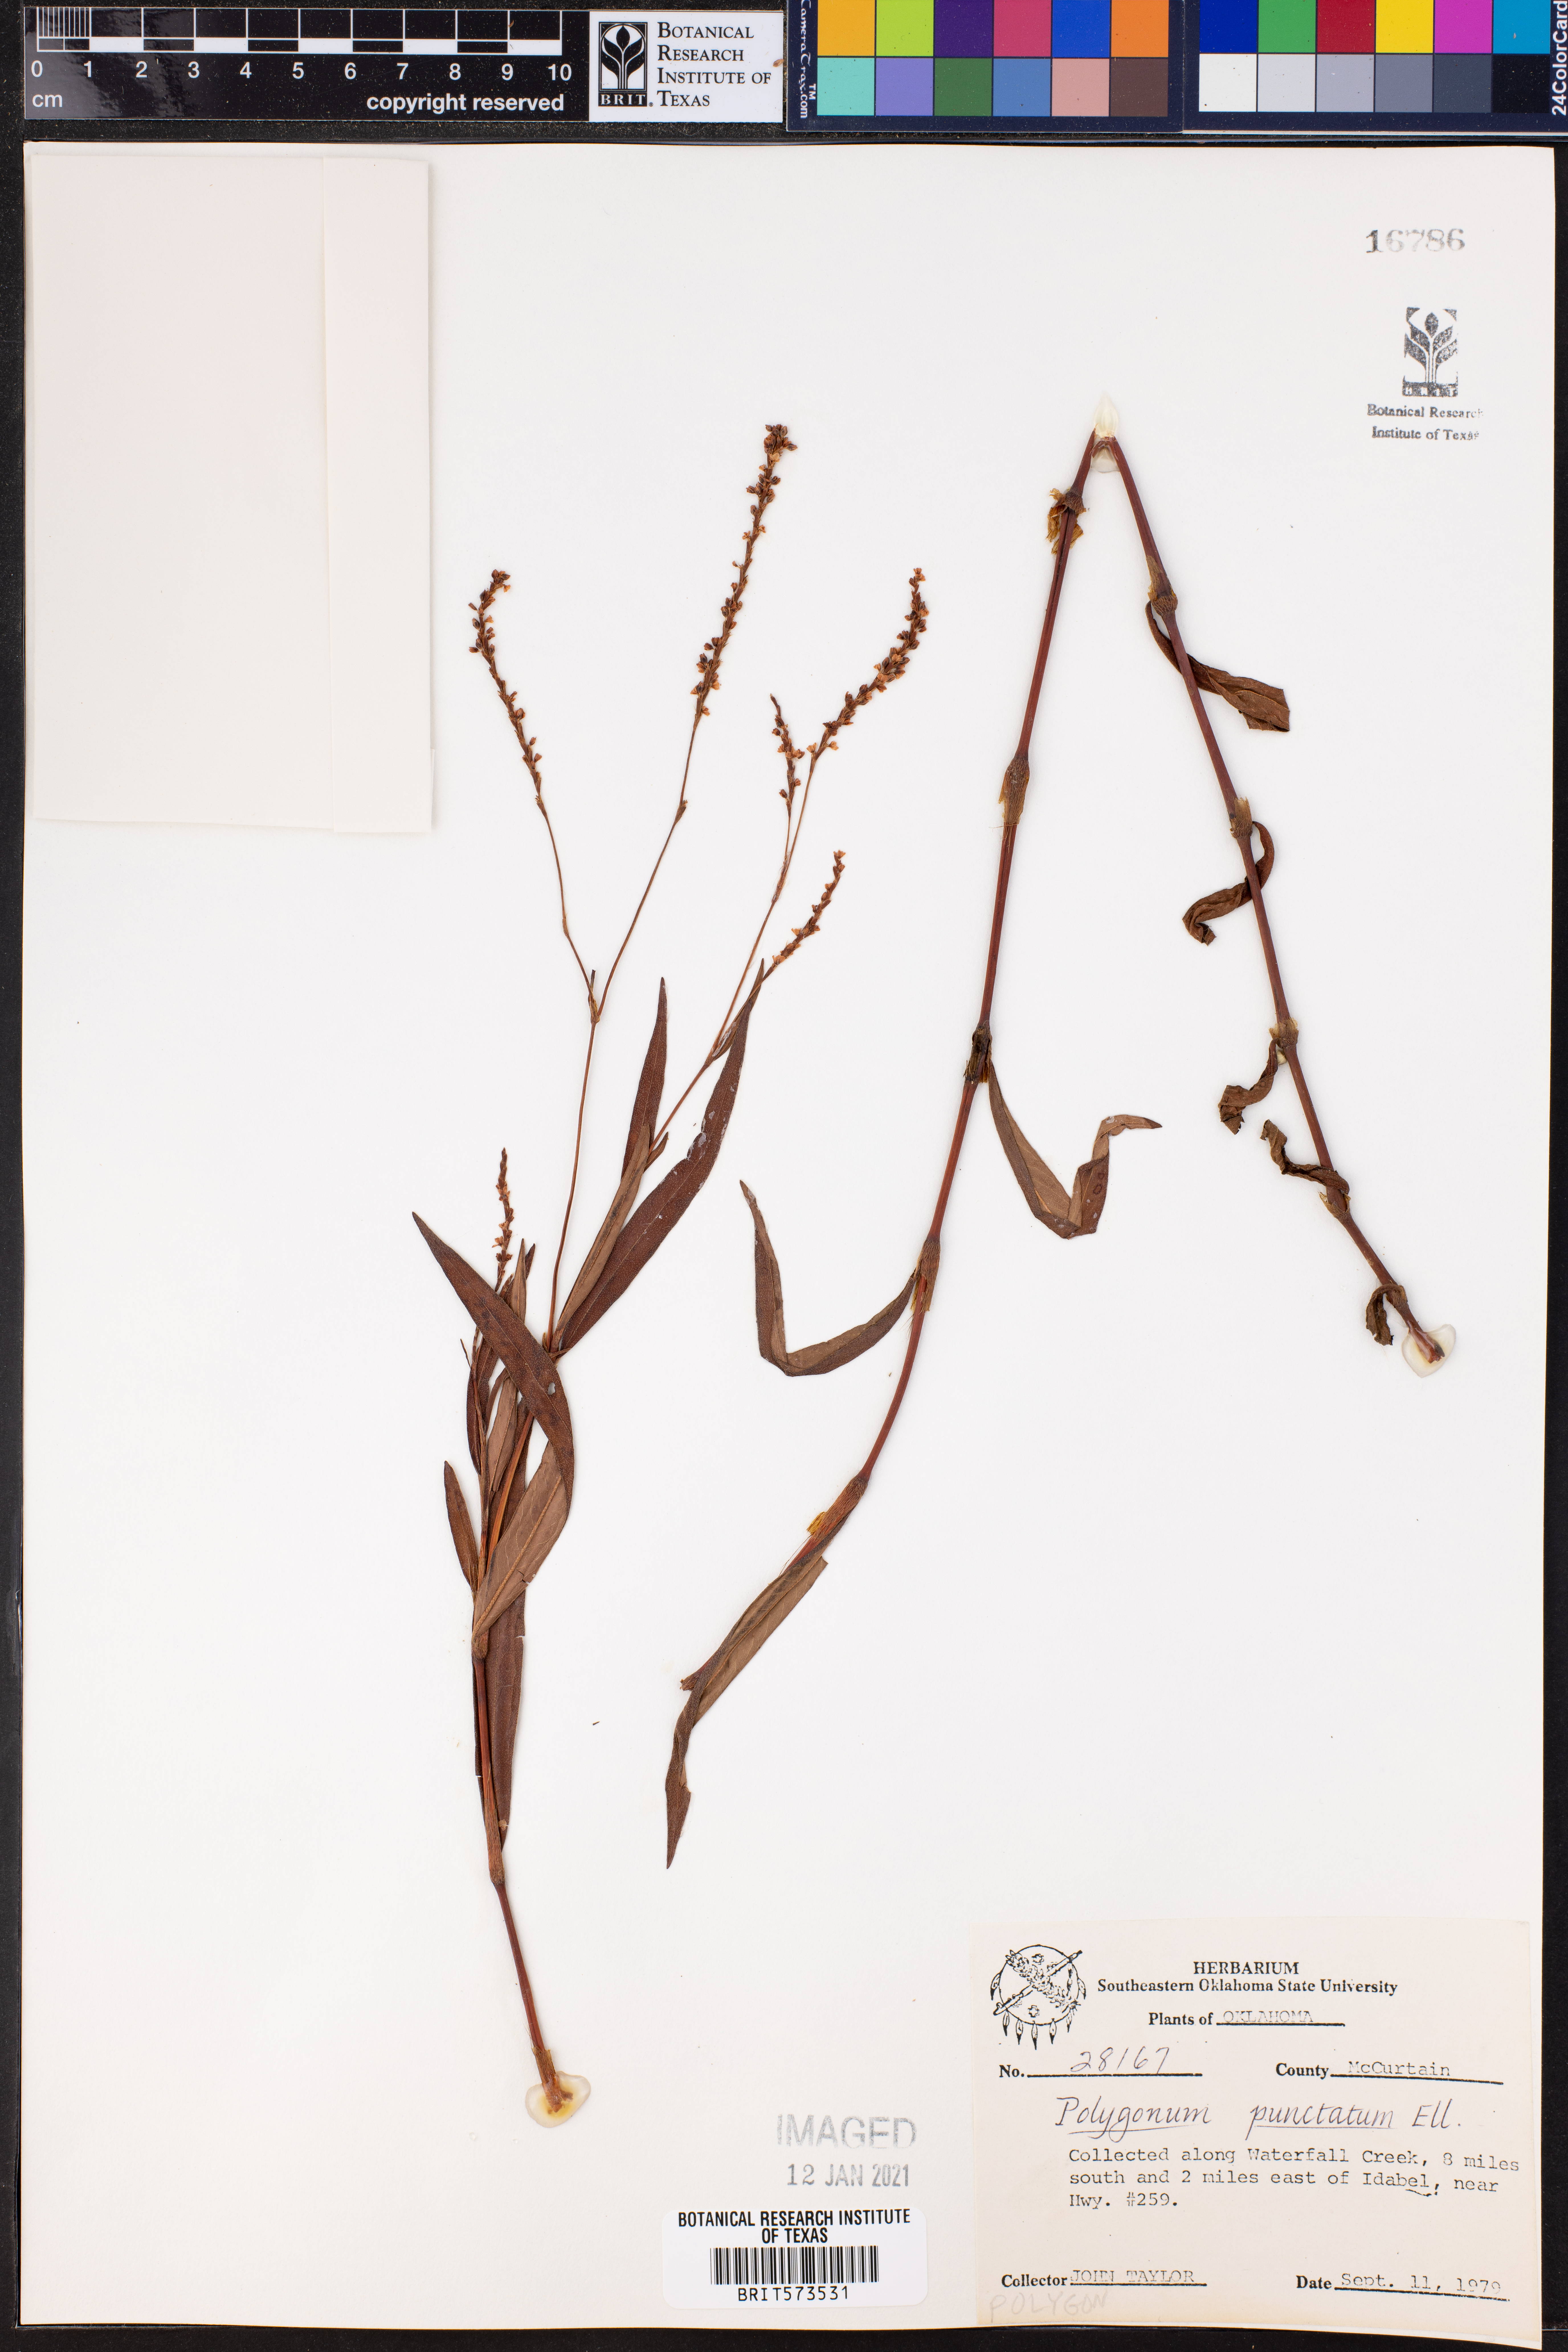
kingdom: Plantae
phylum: Tracheophyta
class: Magnoliopsida
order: Caryophyllales
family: Polygonaceae
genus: Persicaria
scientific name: Persicaria punctata
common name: Dotted smartweed
